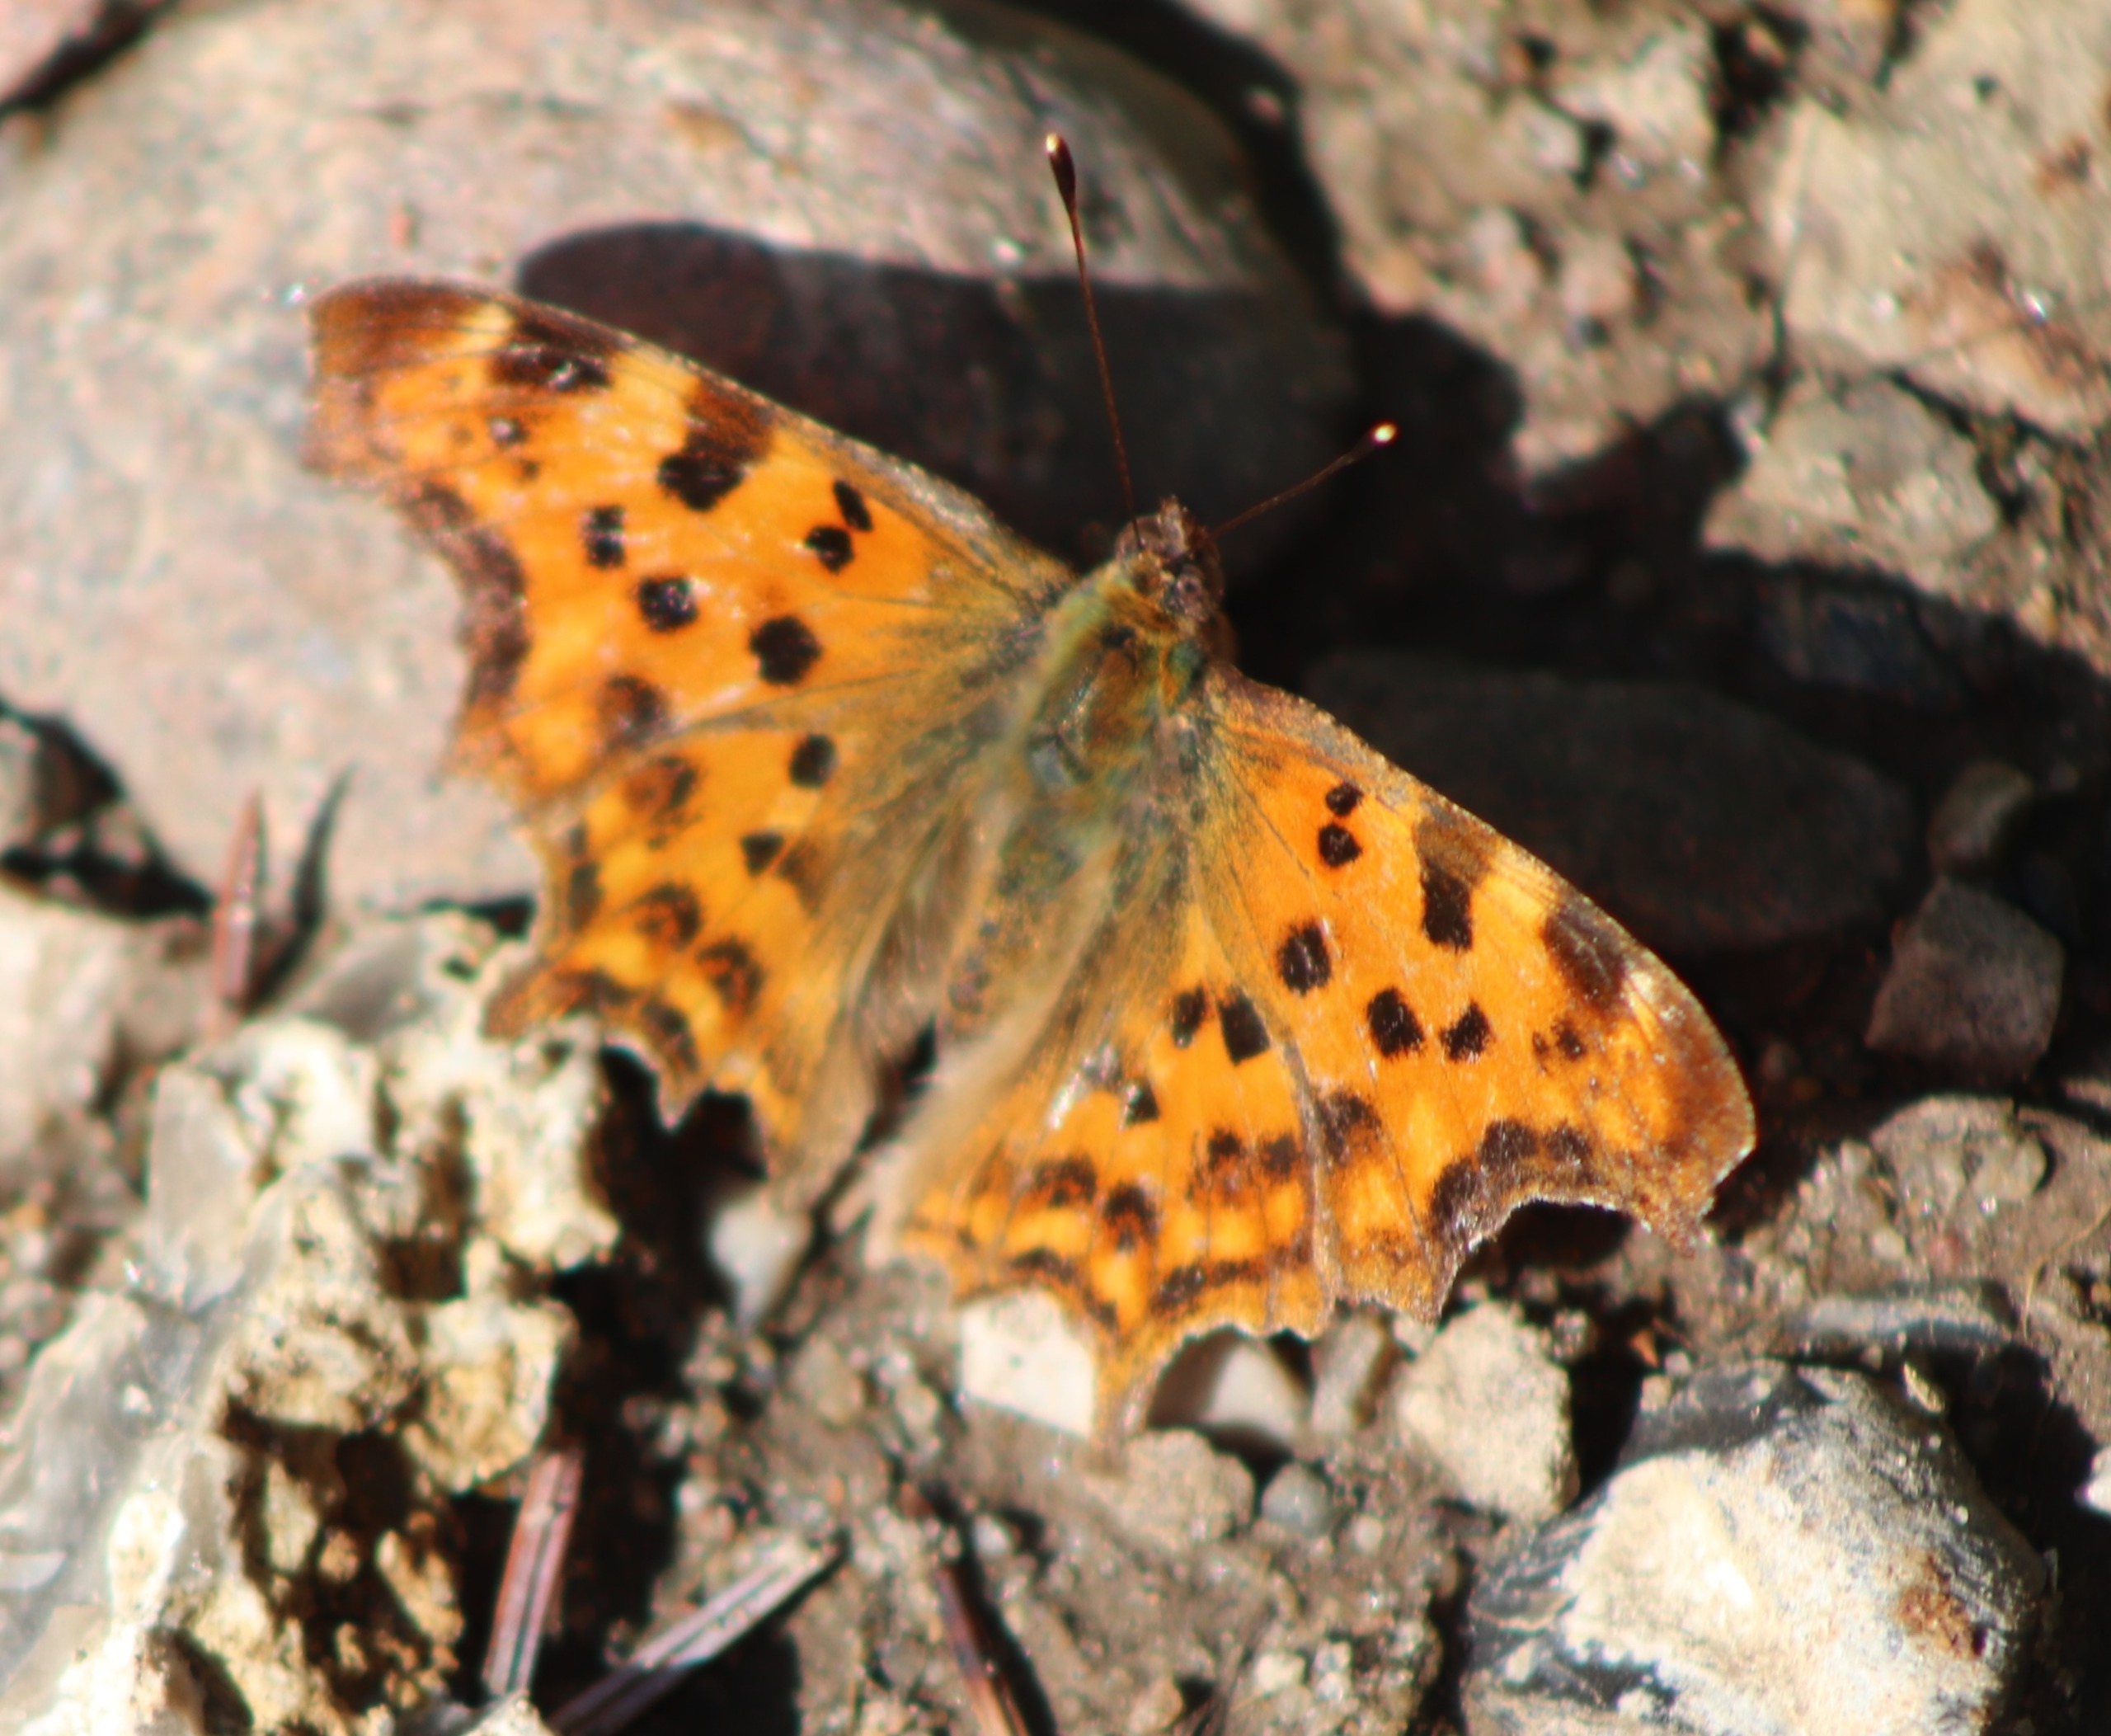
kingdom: Animalia
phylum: Arthropoda
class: Insecta
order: Lepidoptera
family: Nymphalidae
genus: Polygonia
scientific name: Polygonia c-album
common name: Det hvide C
